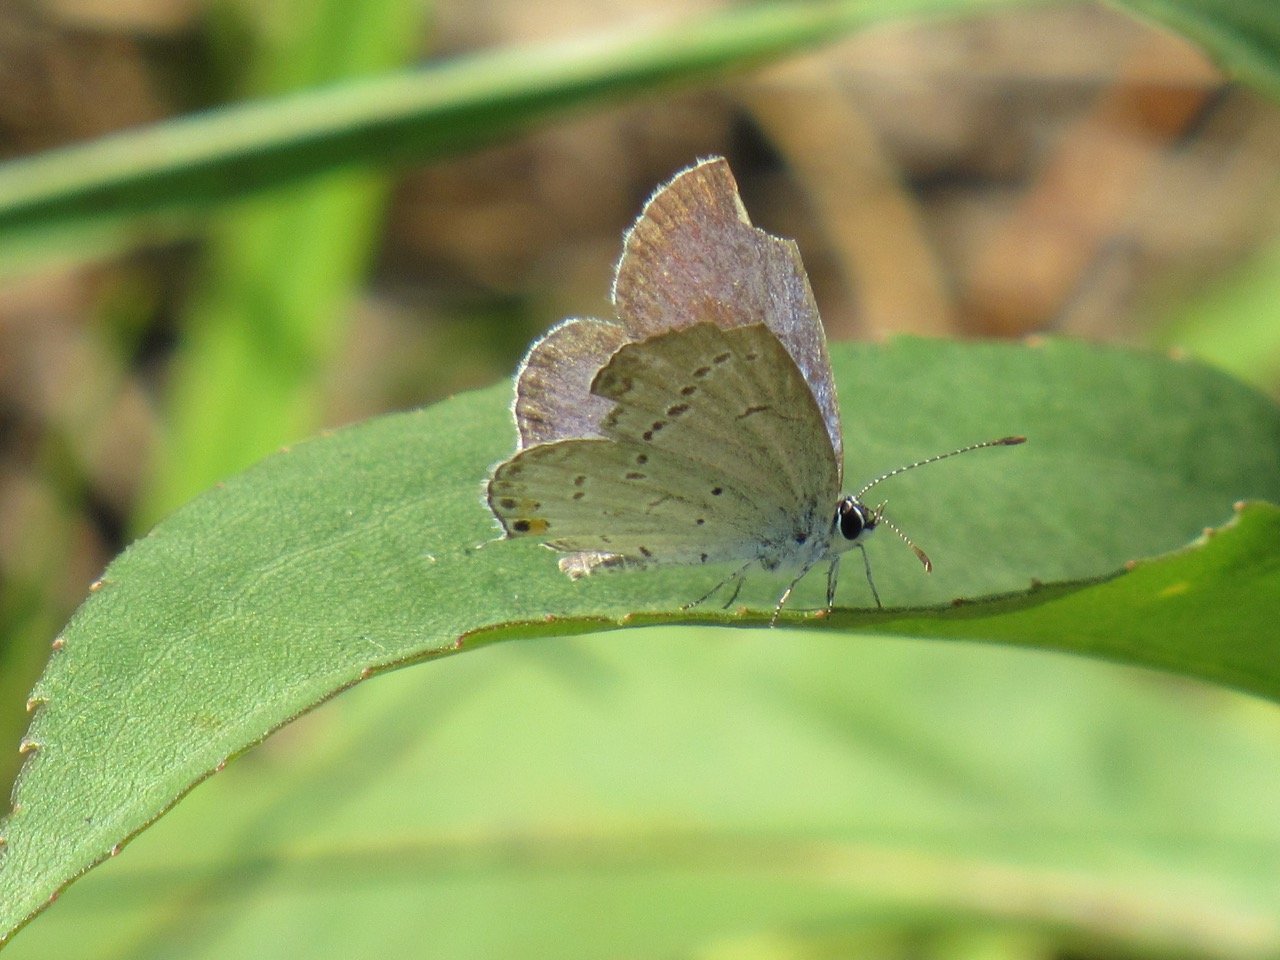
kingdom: Animalia
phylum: Arthropoda
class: Insecta
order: Lepidoptera
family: Lycaenidae
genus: Elkalyce
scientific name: Elkalyce comyntas
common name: Eastern Tailed-Blue
